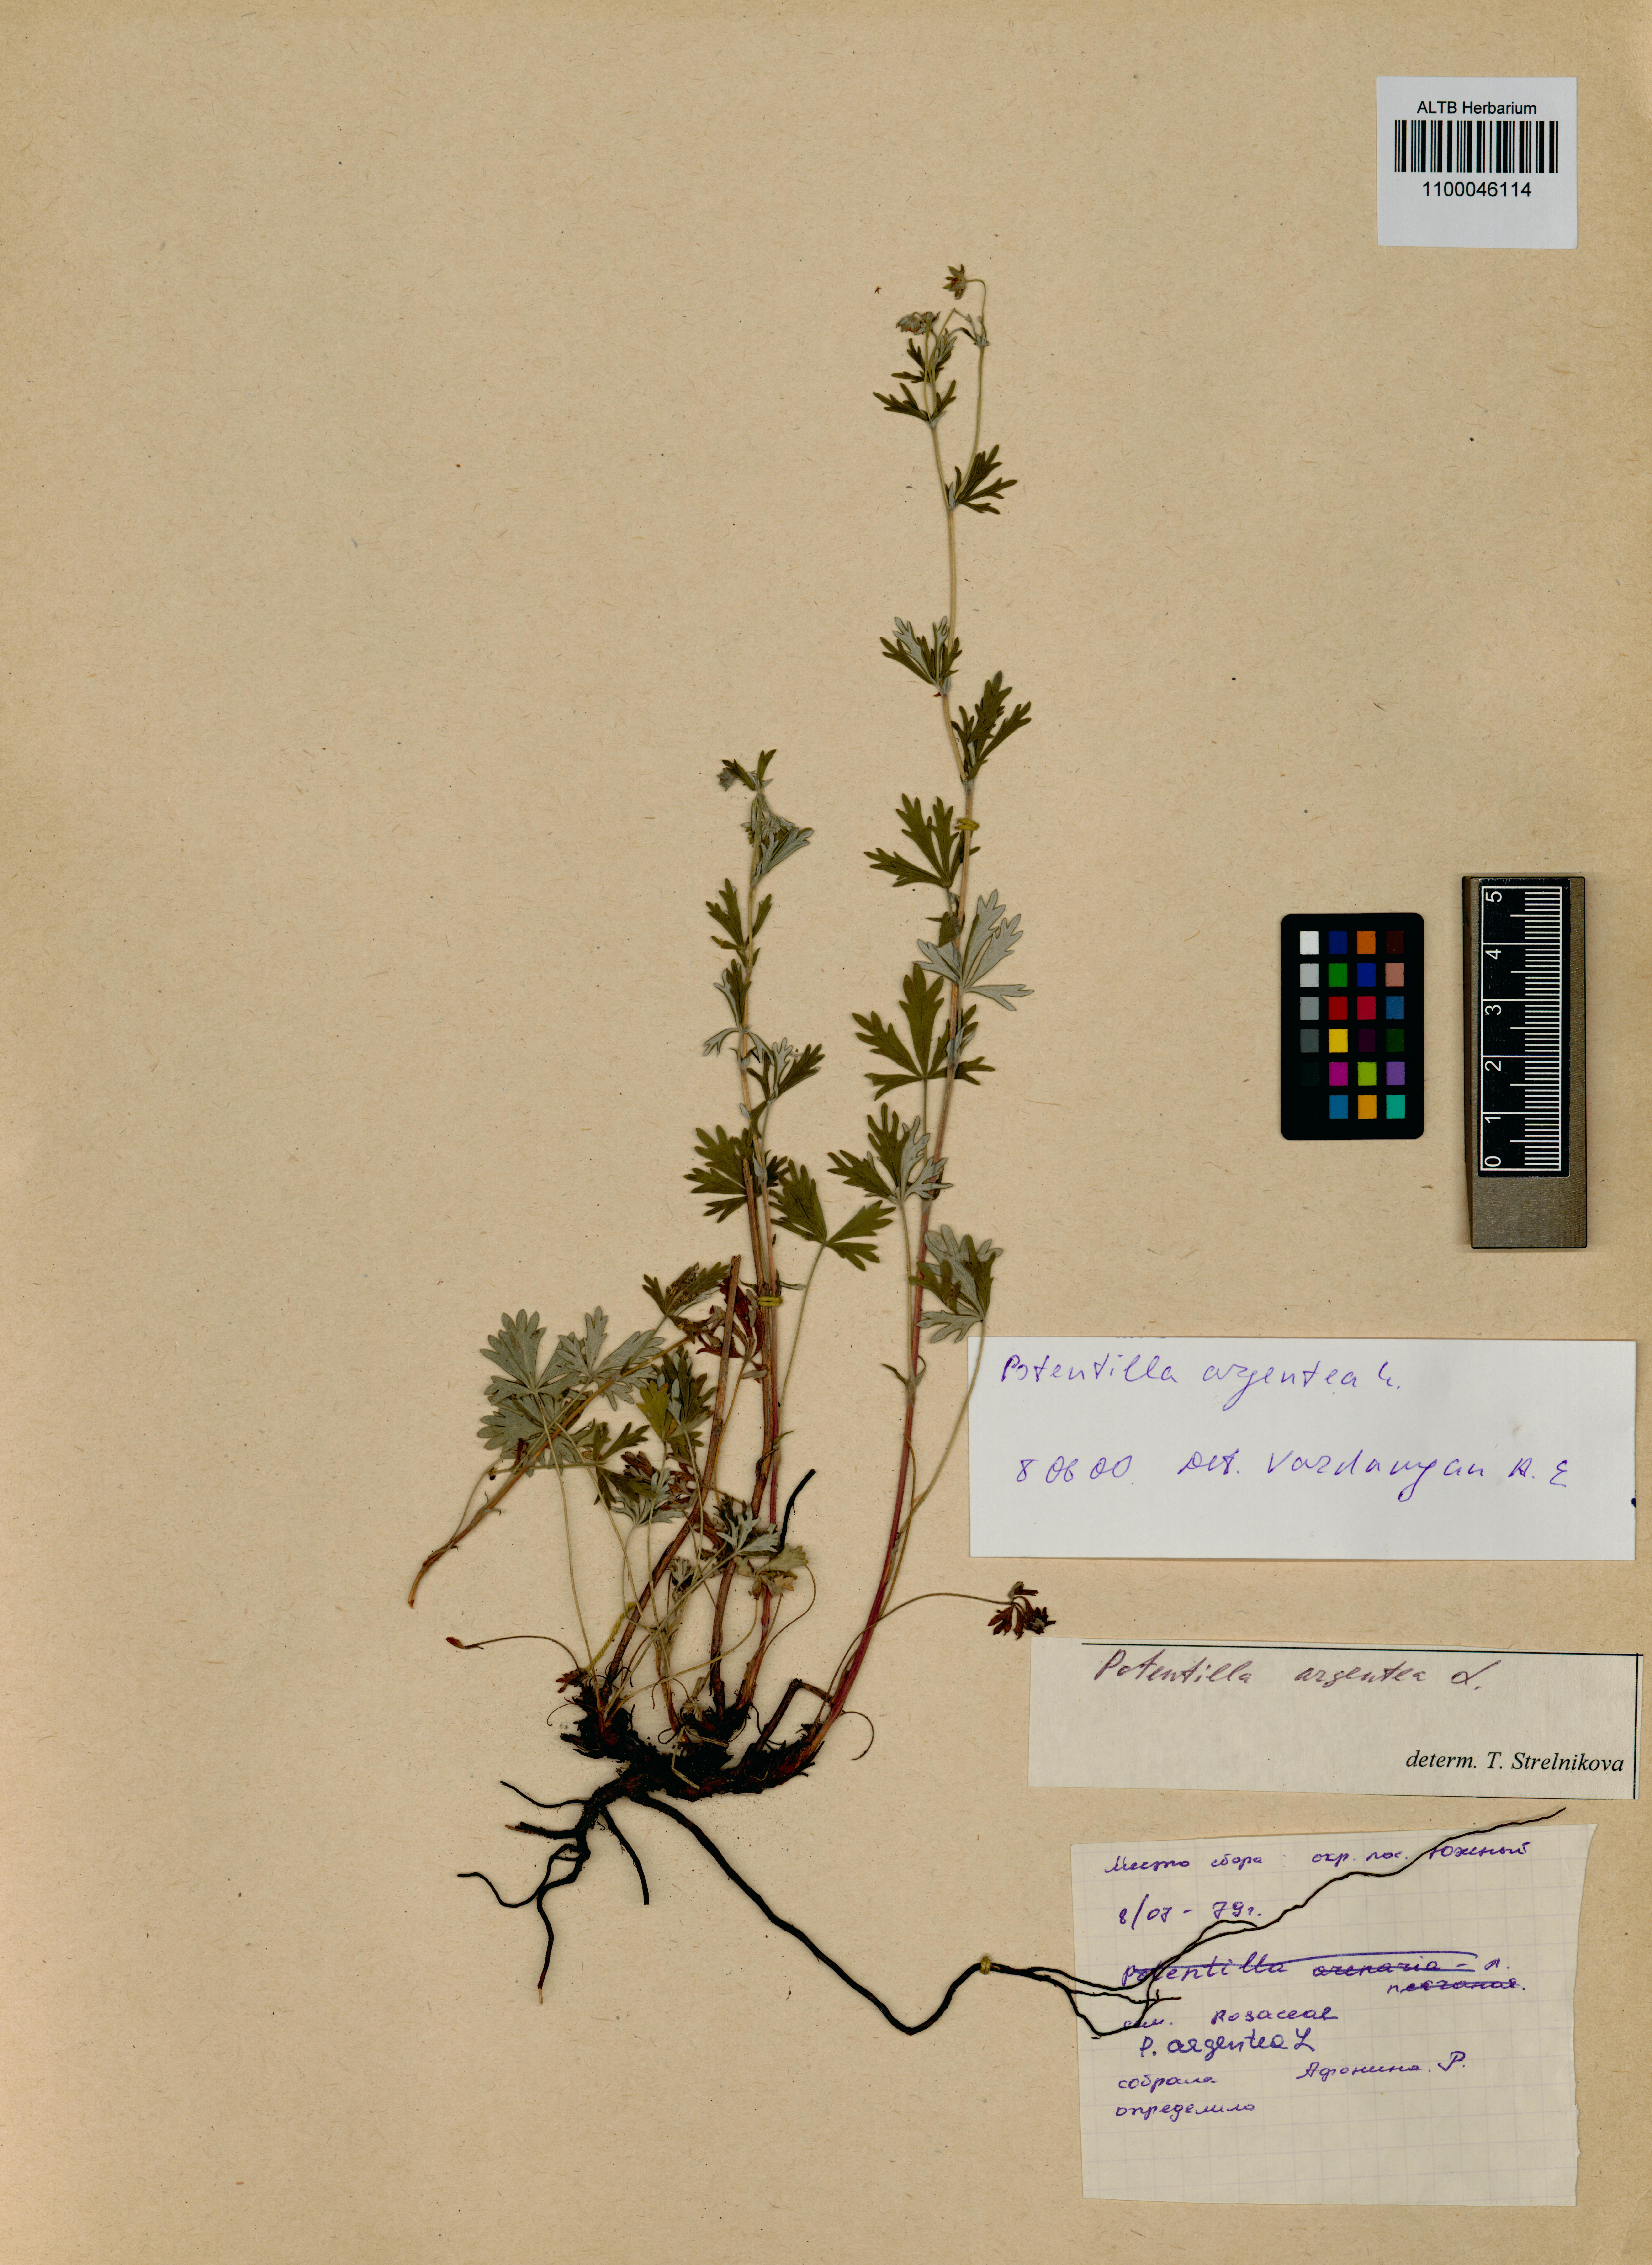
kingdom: Plantae
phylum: Tracheophyta
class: Magnoliopsida
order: Rosales
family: Rosaceae
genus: Potentilla
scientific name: Potentilla argentea
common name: Hoary cinquefoil
